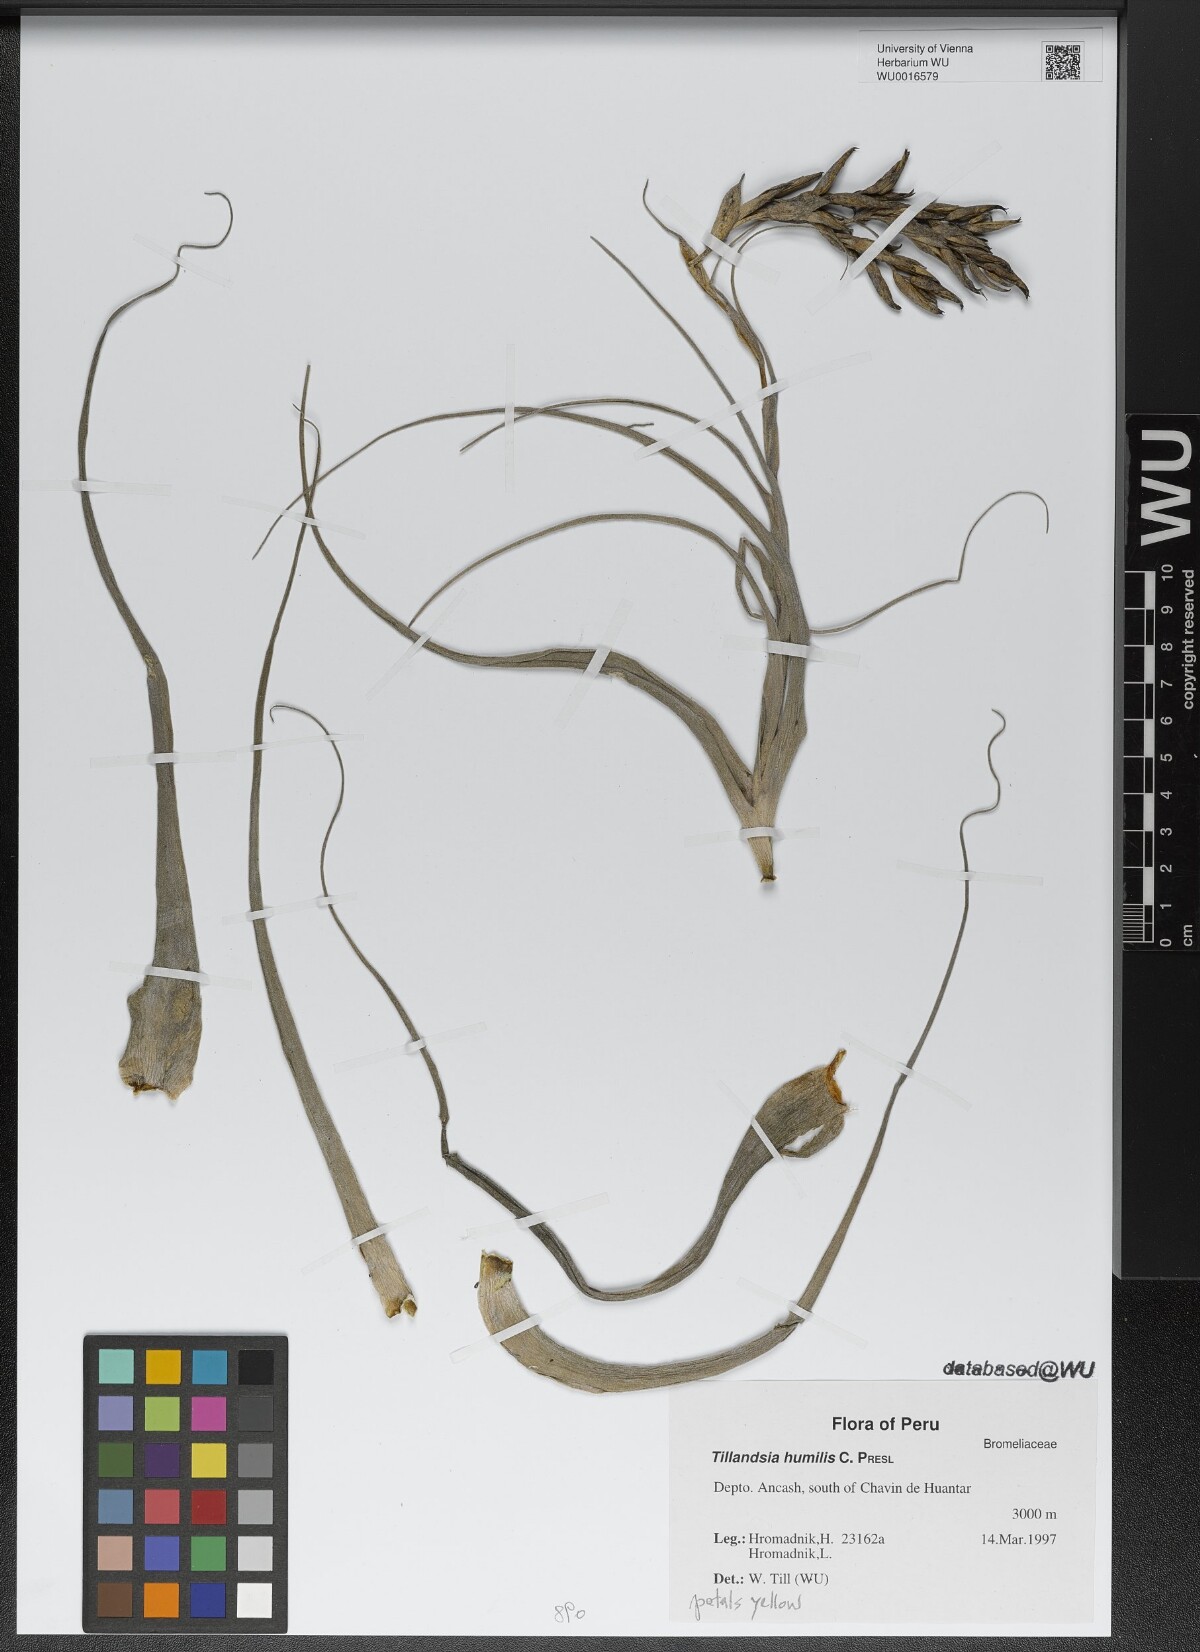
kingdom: Plantae
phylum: Tracheophyta
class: Liliopsida
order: Poales
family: Bromeliaceae
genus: Tillandsia
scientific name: Tillandsia humilis
